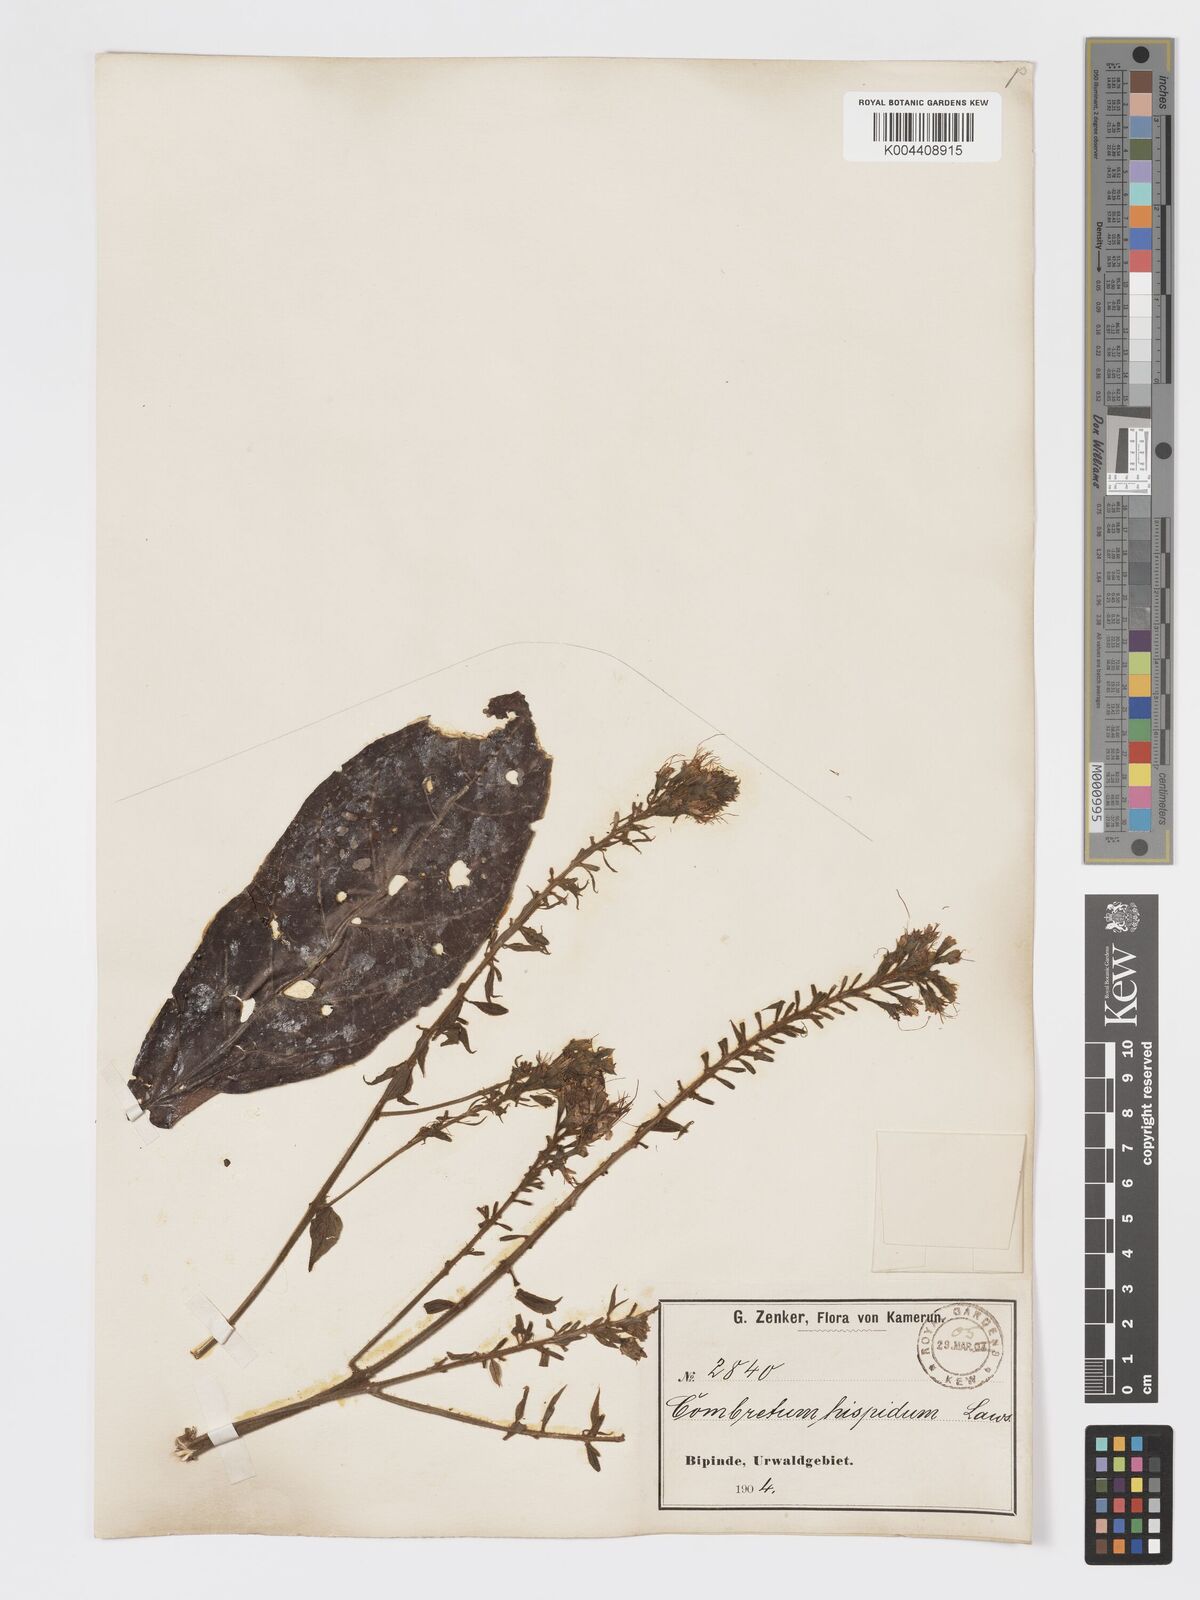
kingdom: Plantae
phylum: Tracheophyta
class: Magnoliopsida
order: Myrtales
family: Combretaceae
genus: Combretum
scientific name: Combretum
